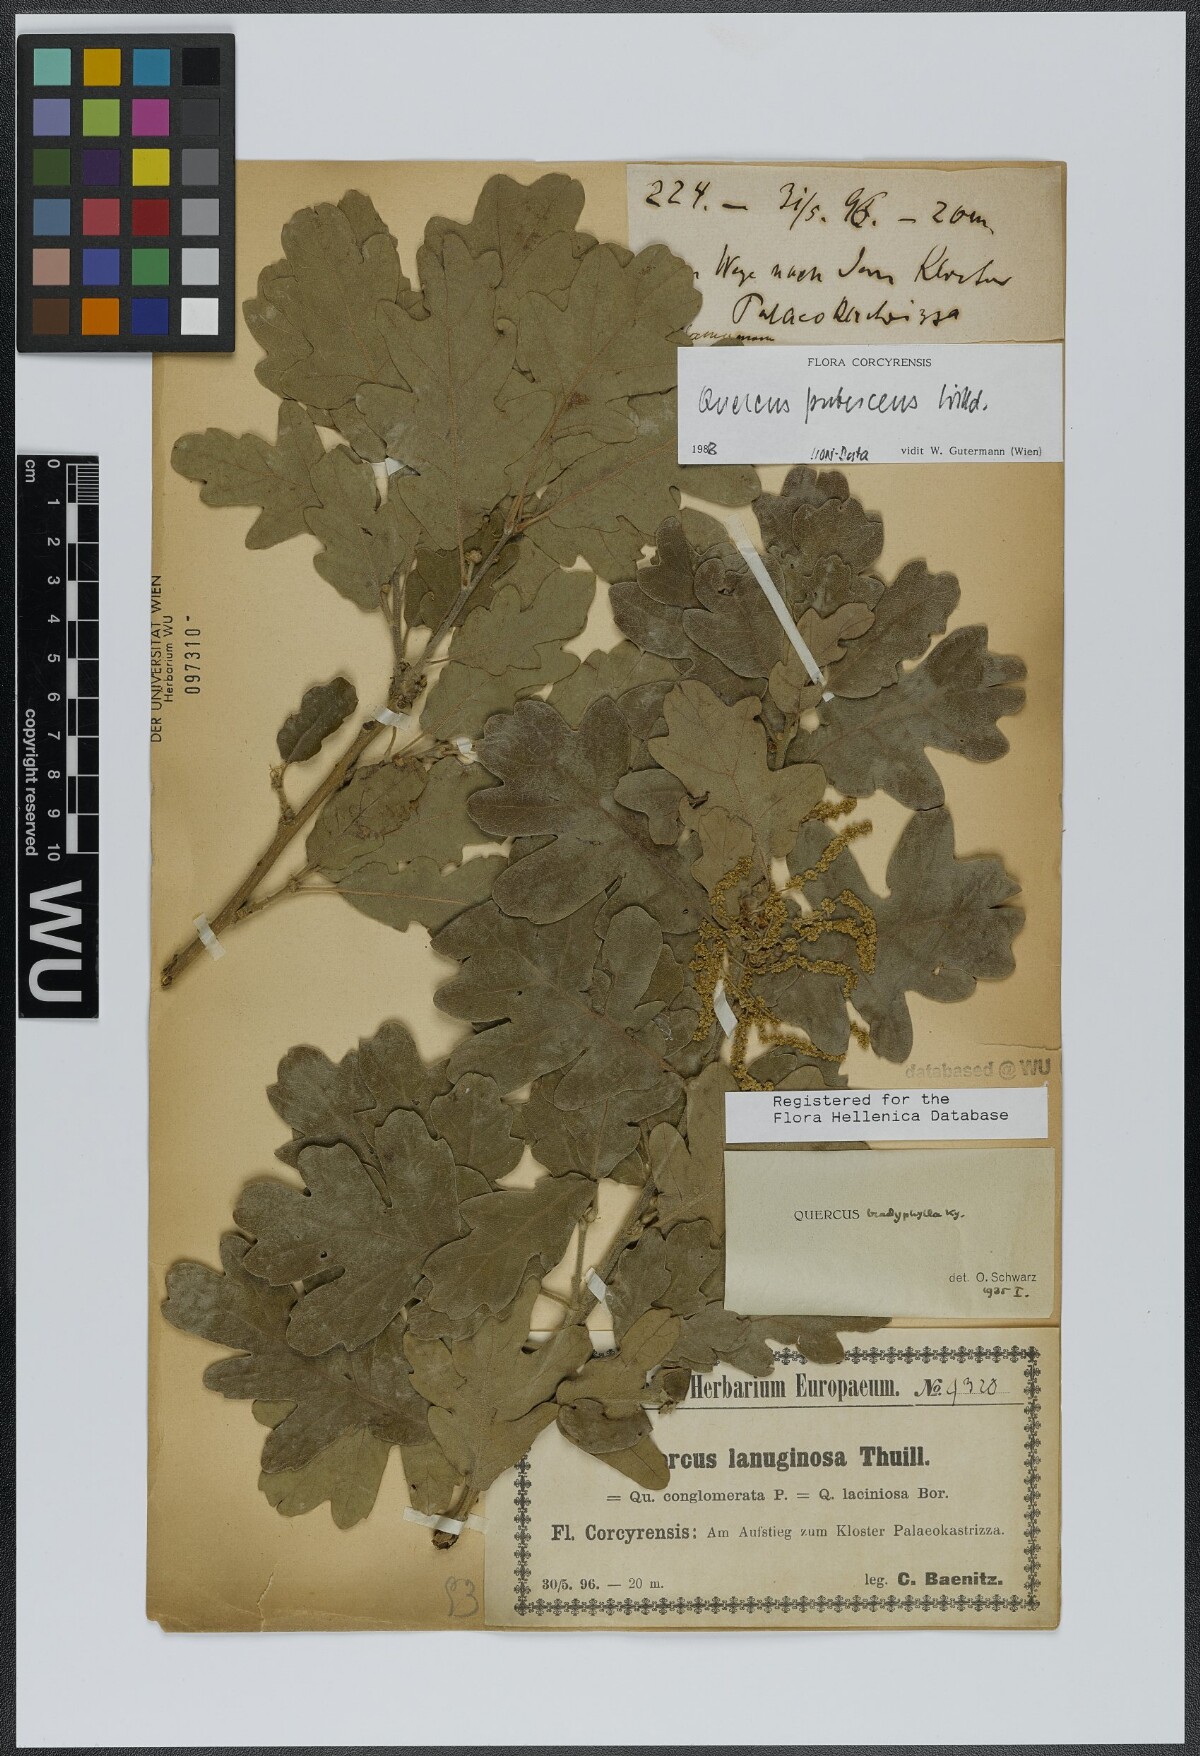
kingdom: Plantae
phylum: Tracheophyta
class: Magnoliopsida
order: Fagales
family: Fagaceae
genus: Quercus
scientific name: Quercus pubescens
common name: Downy oak
